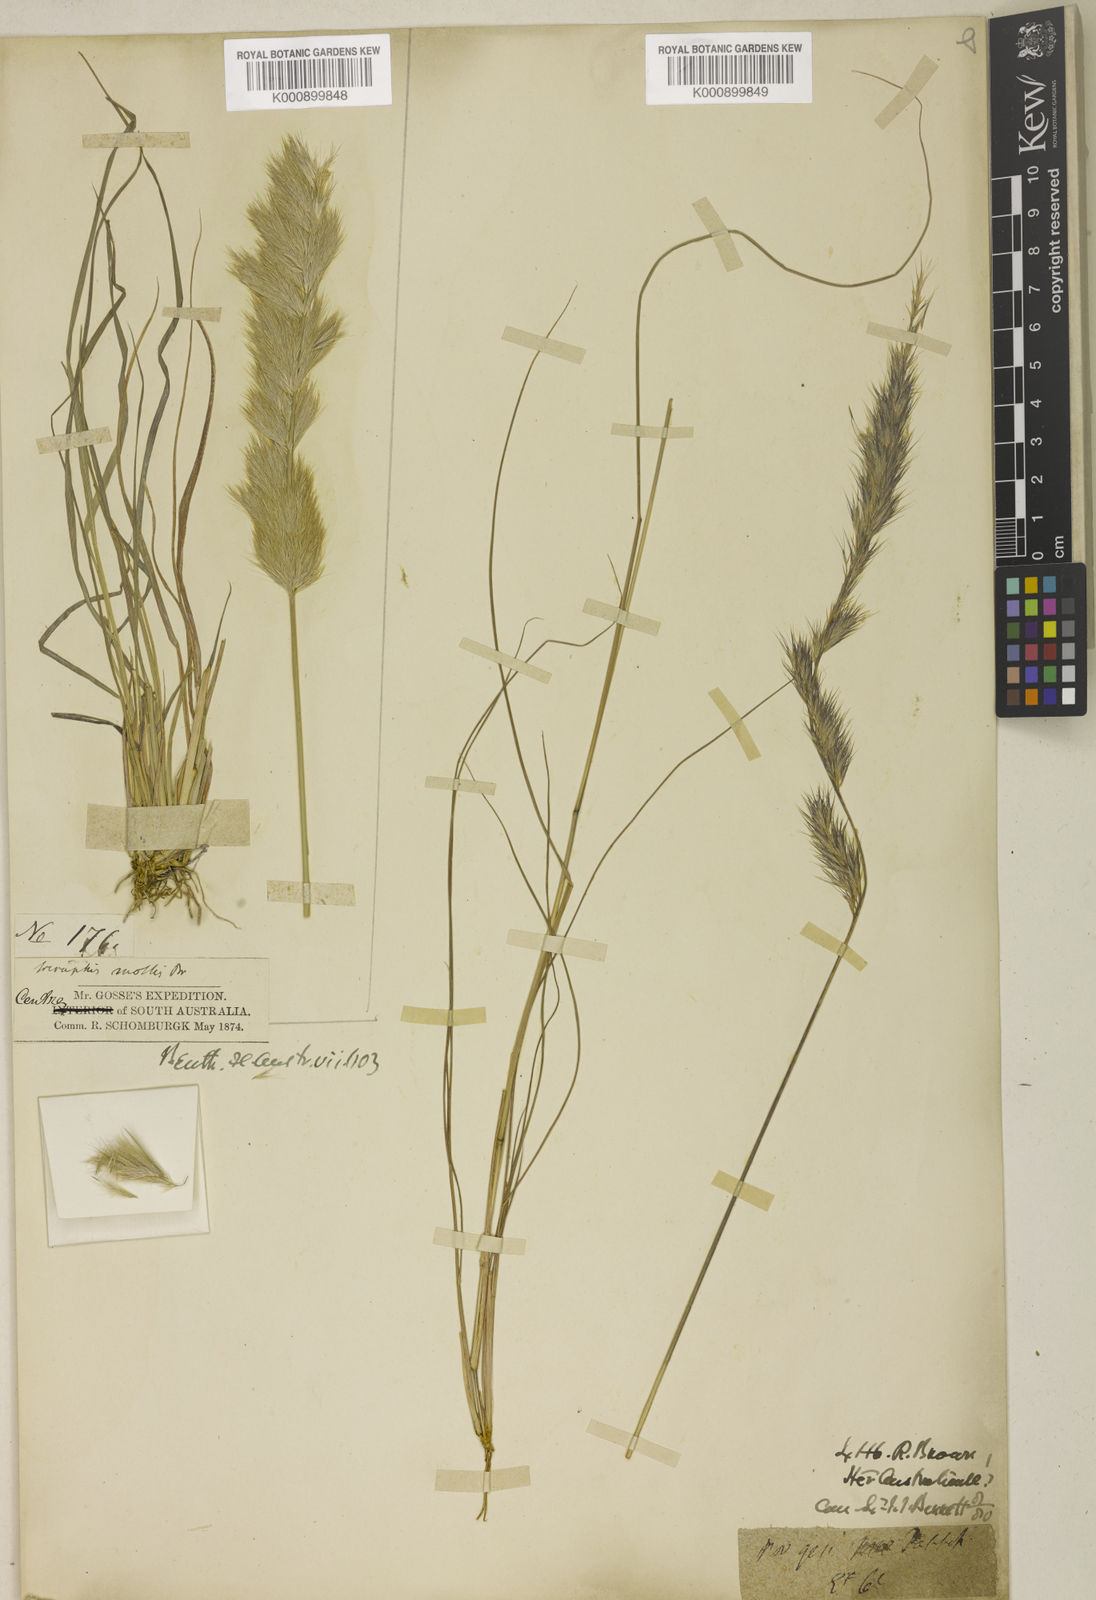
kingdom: Plantae
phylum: Tracheophyta
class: Liliopsida
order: Poales
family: Poaceae
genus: Triraphis
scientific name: Triraphis mollis
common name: Purple needlegrass
